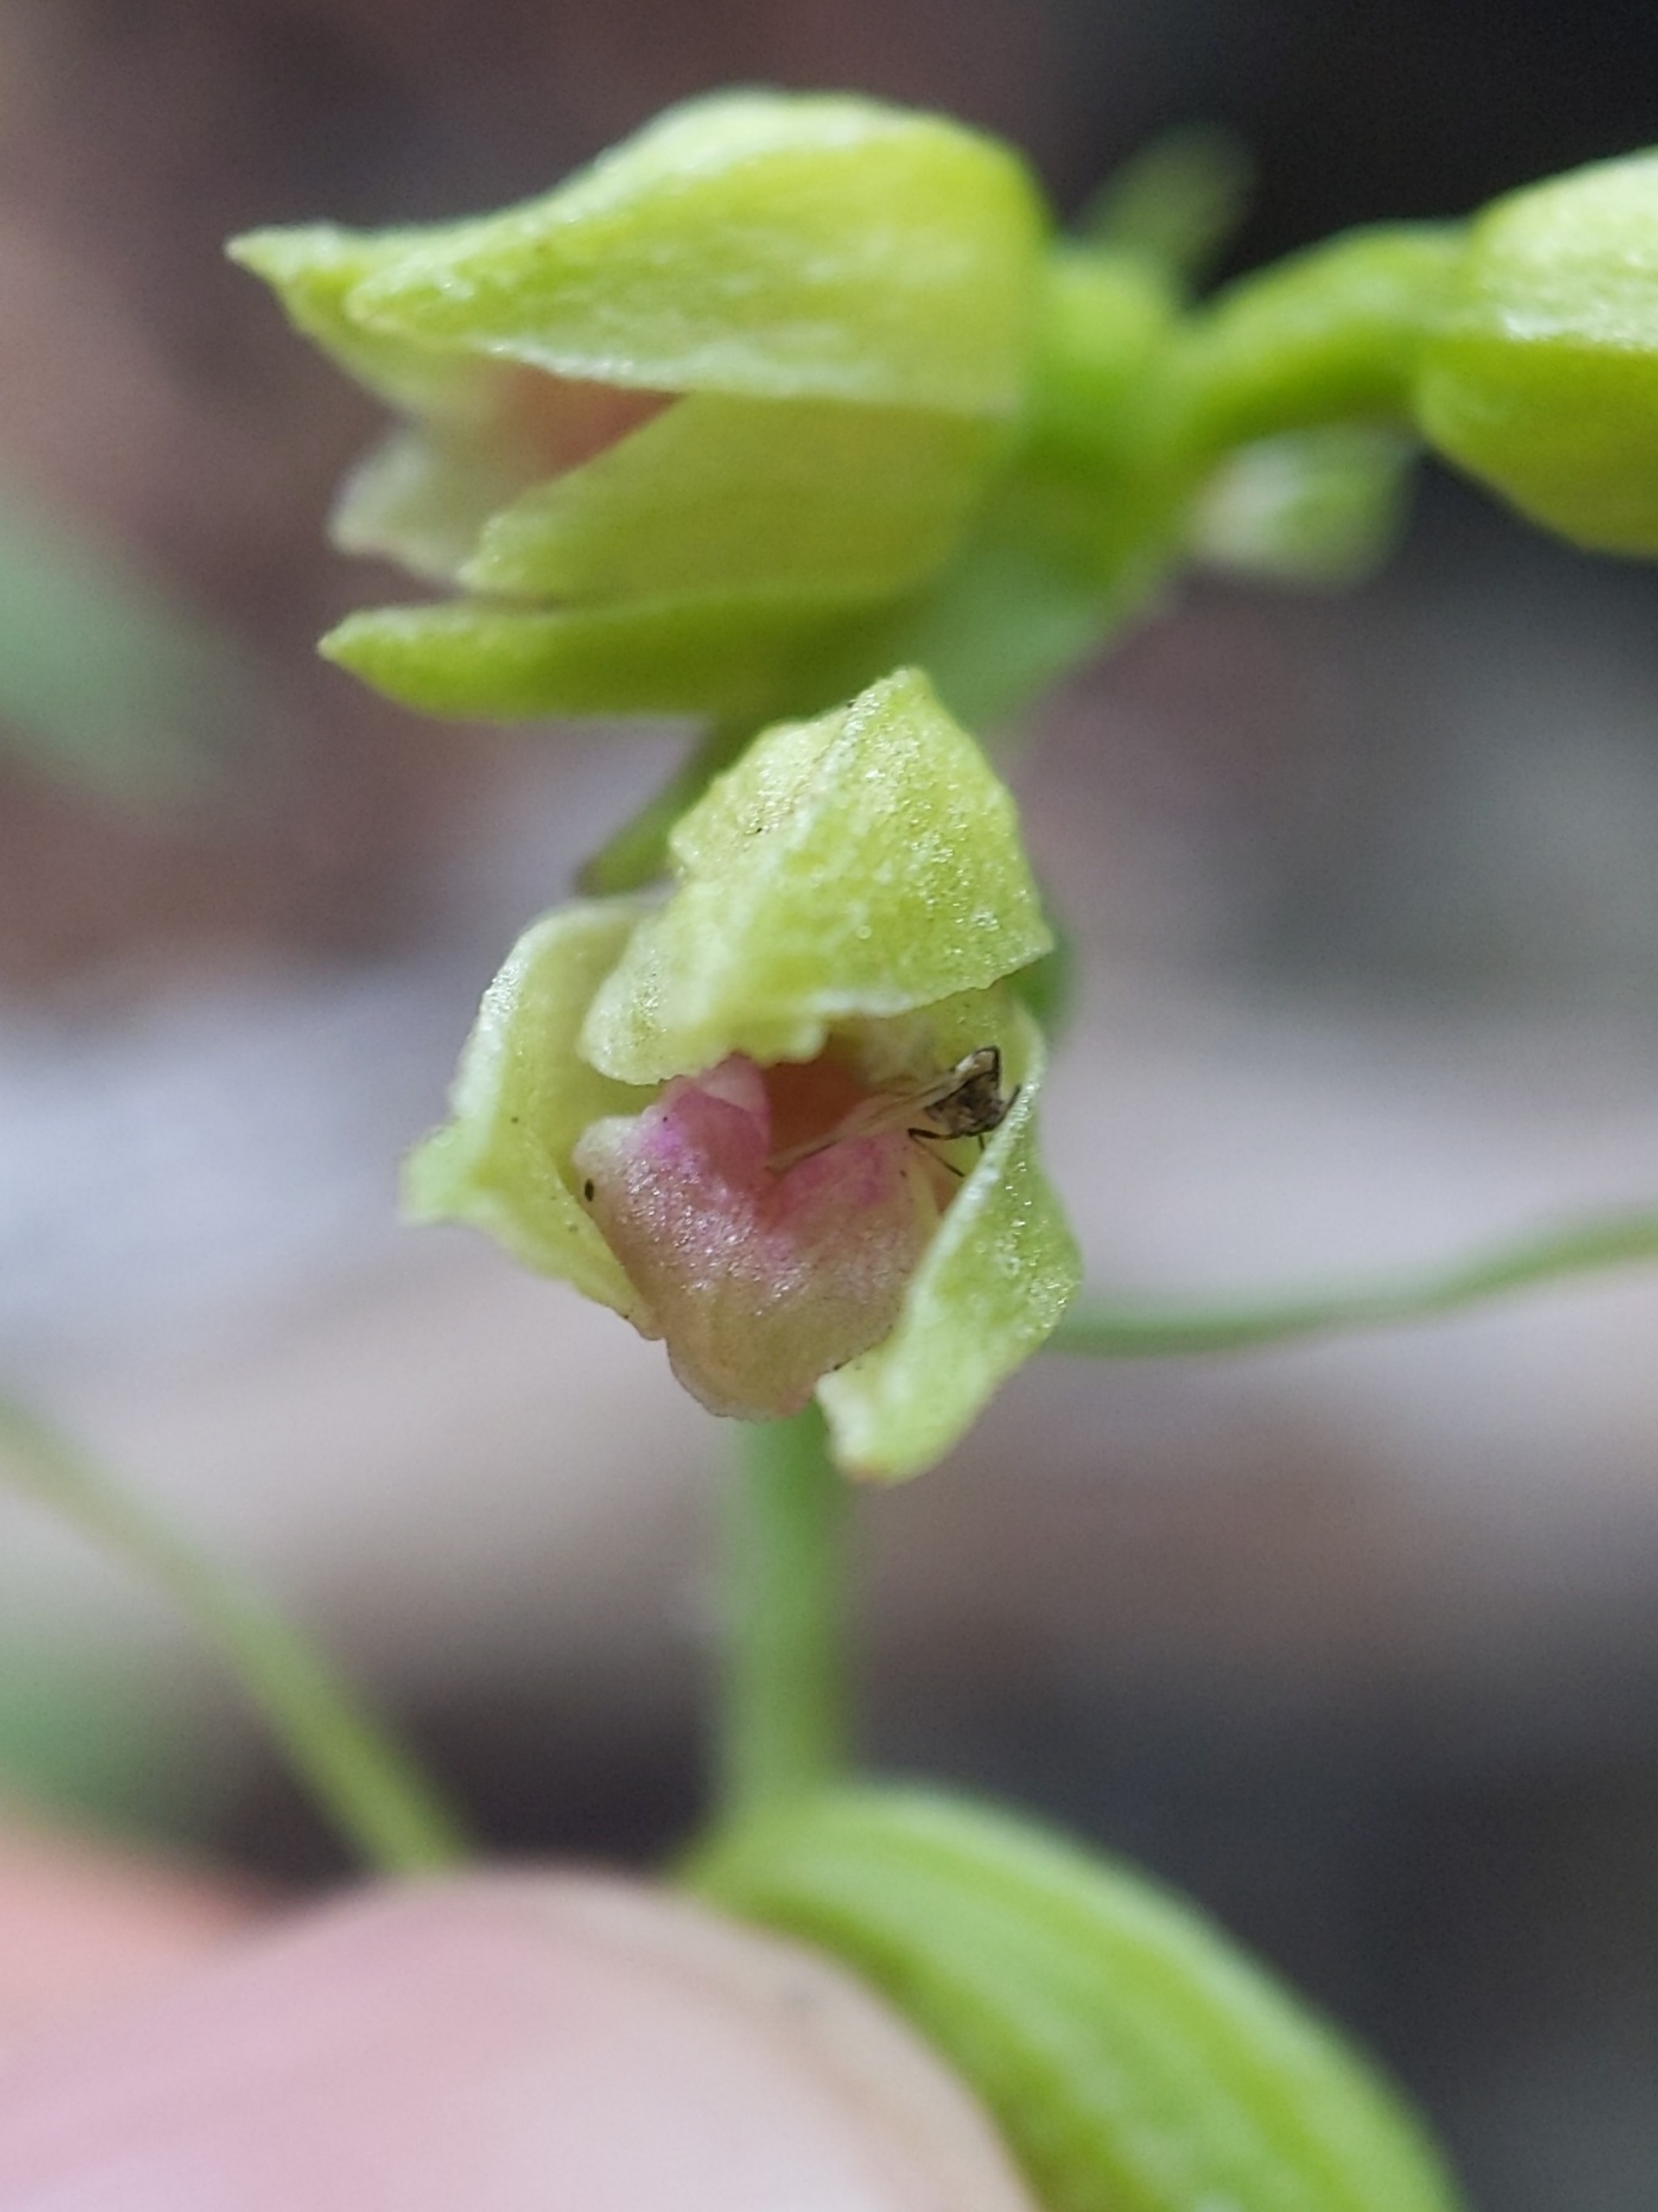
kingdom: Plantae
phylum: Tracheophyta
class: Liliopsida
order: Asparagales
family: Orchidaceae
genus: Epipactis
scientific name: Epipactis phyllanthes
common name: Nikkende hullæbe
